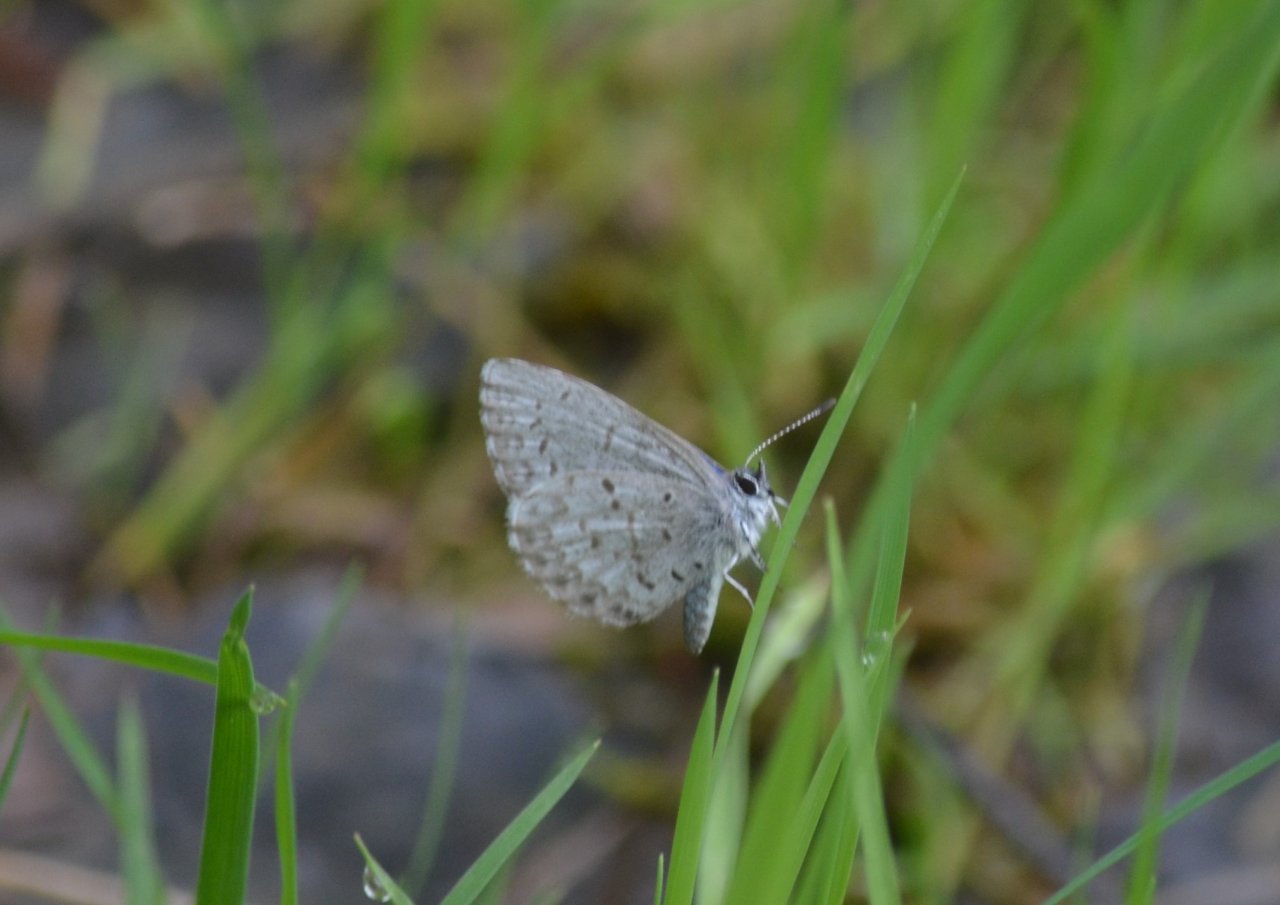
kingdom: Animalia
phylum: Arthropoda
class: Insecta
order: Lepidoptera
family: Lycaenidae
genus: Celastrina
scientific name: Celastrina
